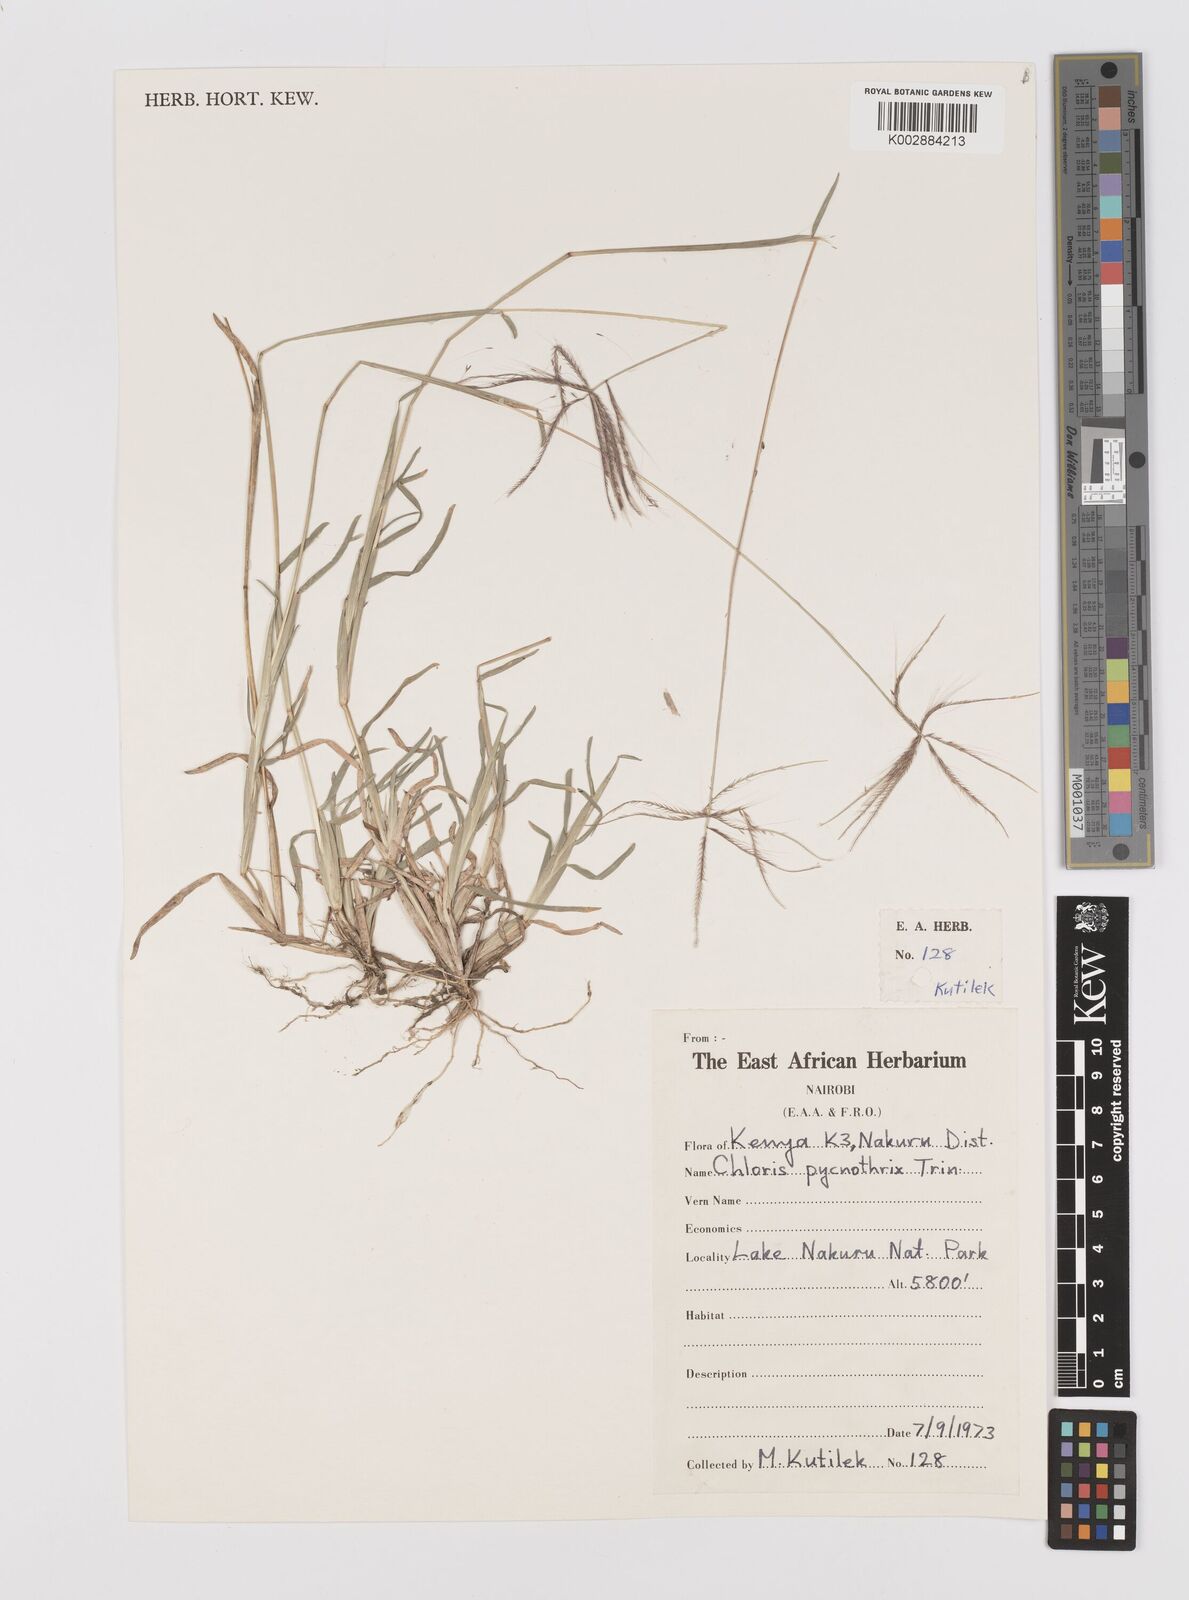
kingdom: Plantae
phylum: Tracheophyta
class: Liliopsida
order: Poales
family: Poaceae
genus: Chloris
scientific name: Chloris pycnothrix
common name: Spiderweb chloris
